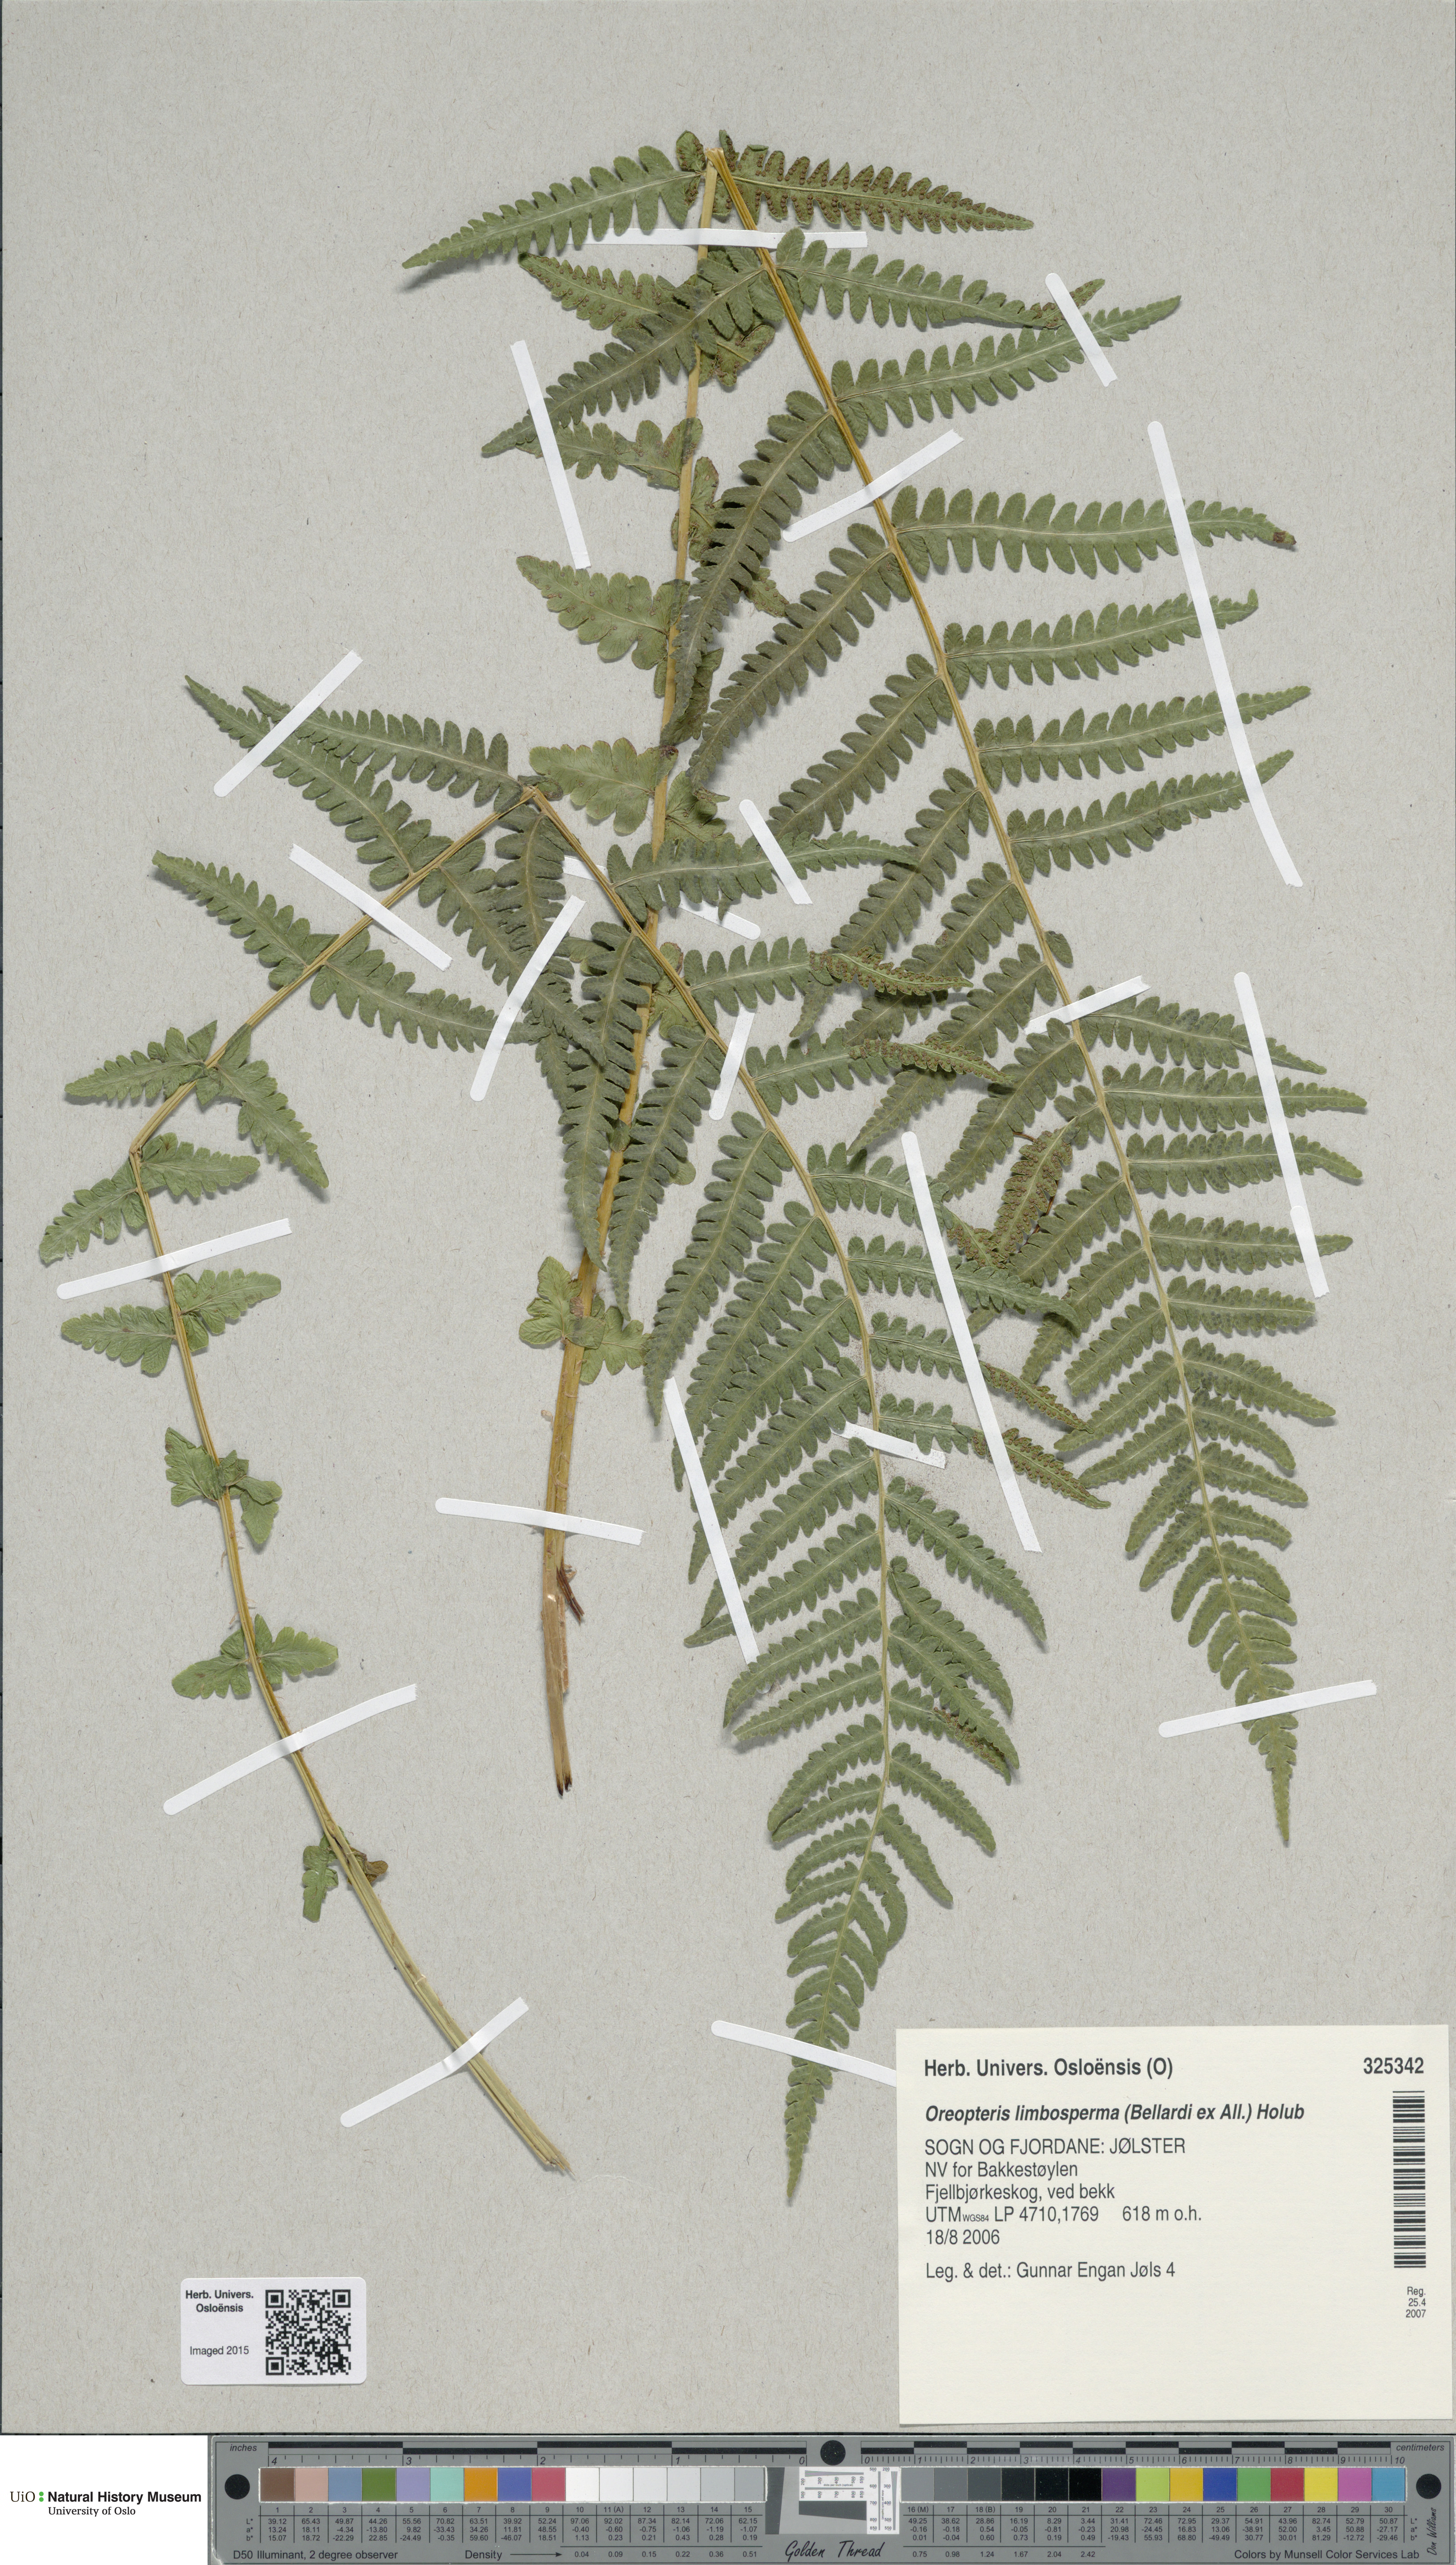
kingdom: Plantae
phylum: Tracheophyta
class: Polypodiopsida
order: Polypodiales
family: Thelypteridaceae
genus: Oreopteris
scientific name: Oreopteris limbosperma
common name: Lemon-scented fern
